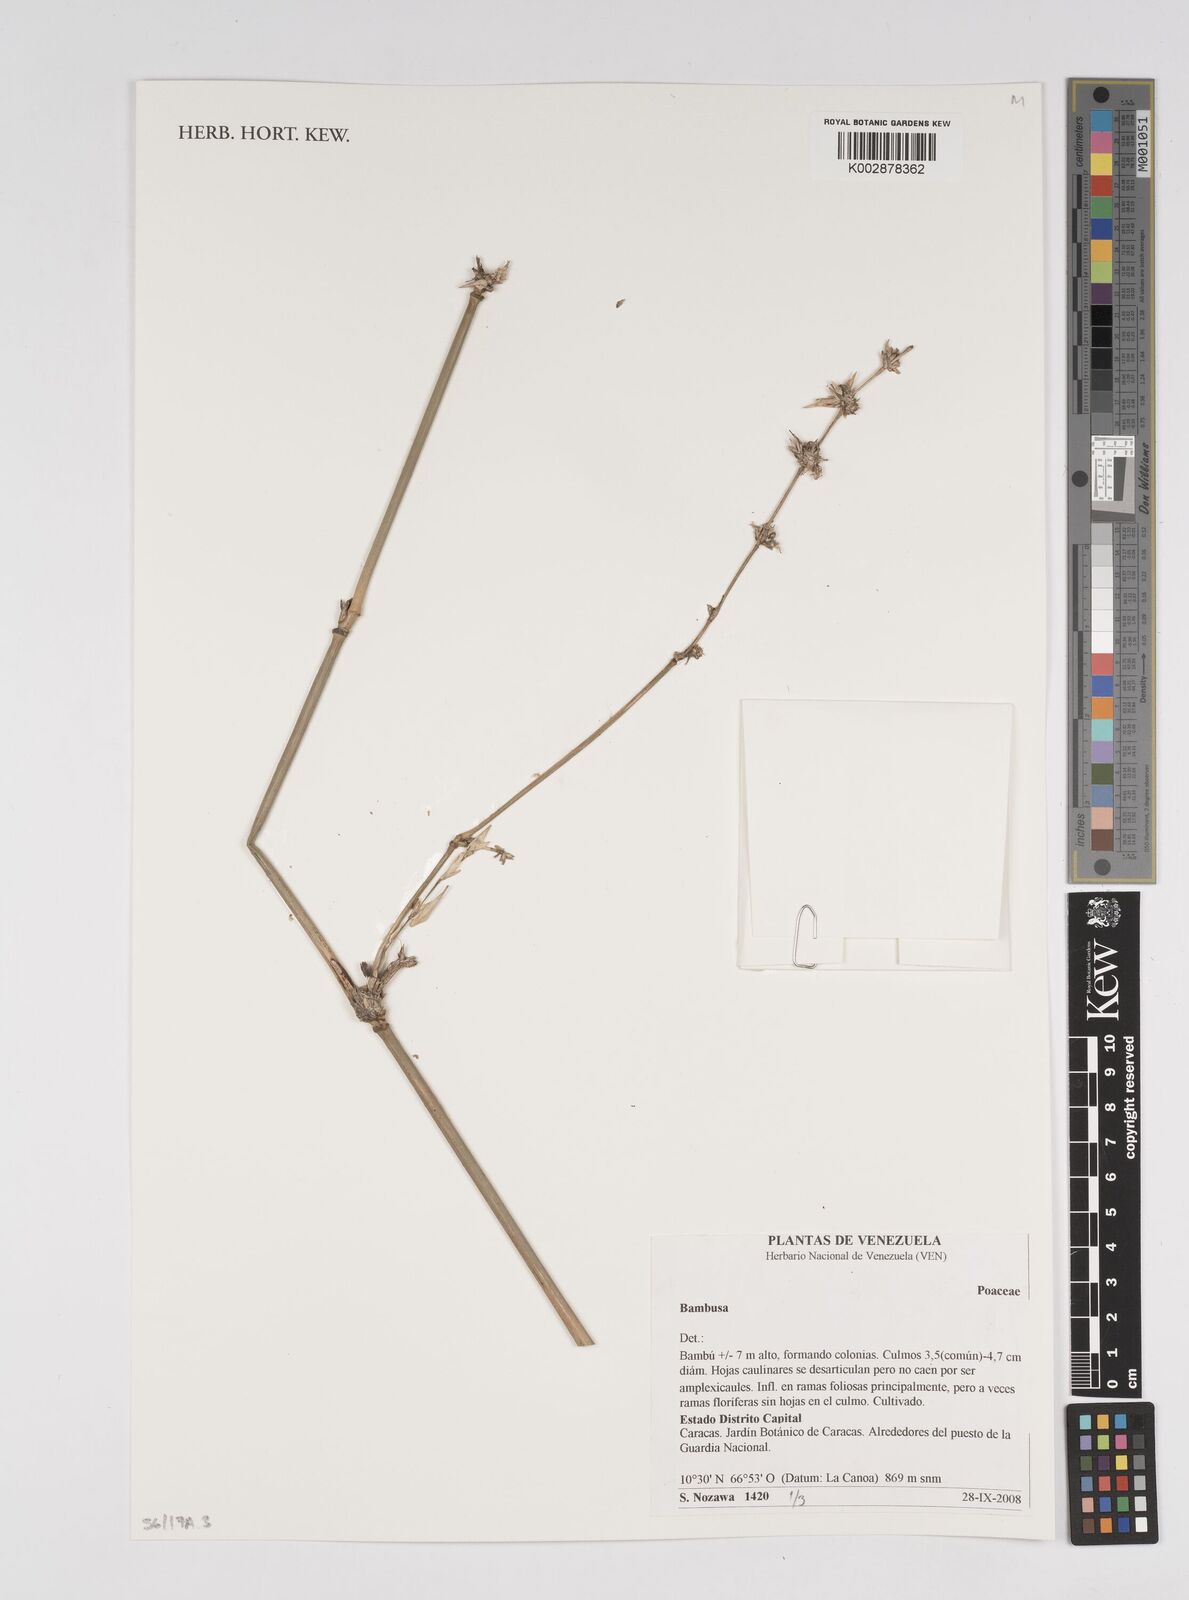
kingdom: Plantae
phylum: Tracheophyta
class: Liliopsida
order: Poales
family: Poaceae
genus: Bambusa
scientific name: Bambusa
